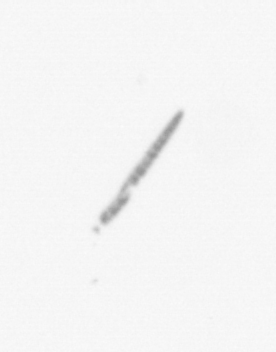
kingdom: Chromista
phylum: Ochrophyta
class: Bacillariophyceae
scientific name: Bacillariophyceae
